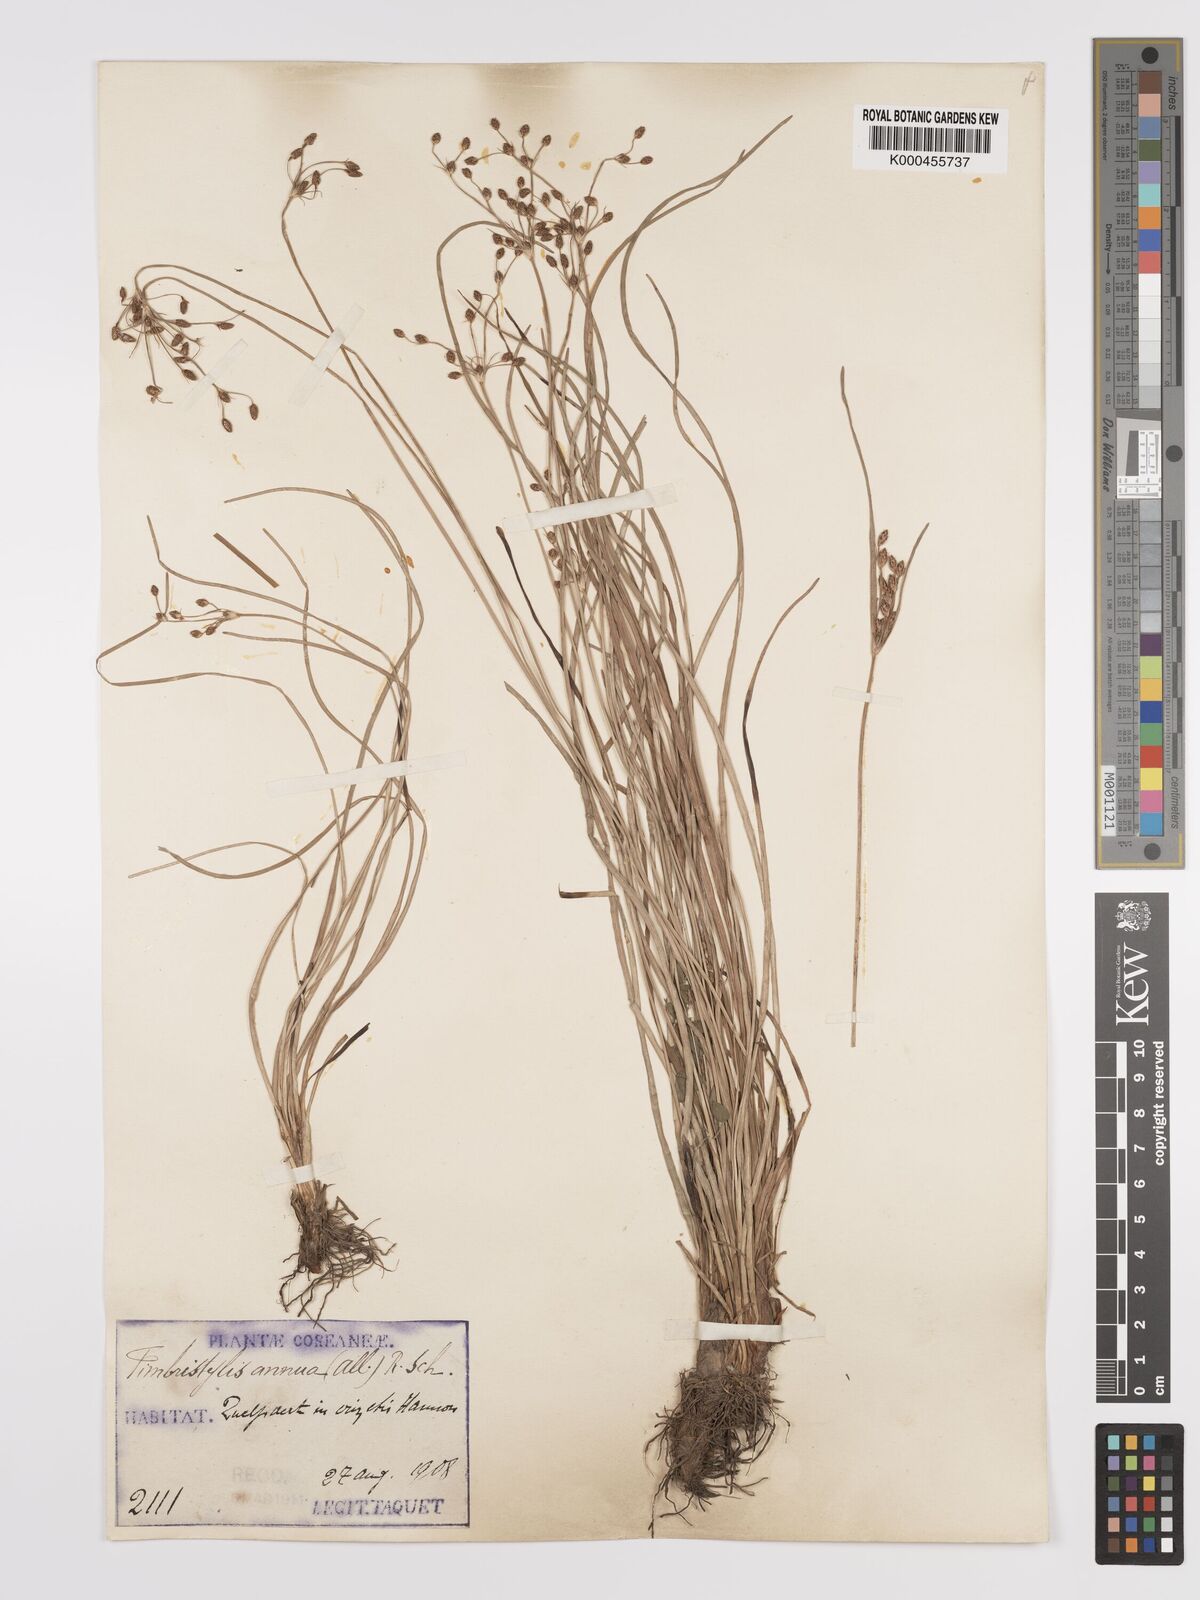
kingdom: Plantae
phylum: Tracheophyta
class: Liliopsida
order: Poales
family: Cyperaceae
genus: Fimbristylis
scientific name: Fimbristylis dichotoma
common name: Forked fimbry
